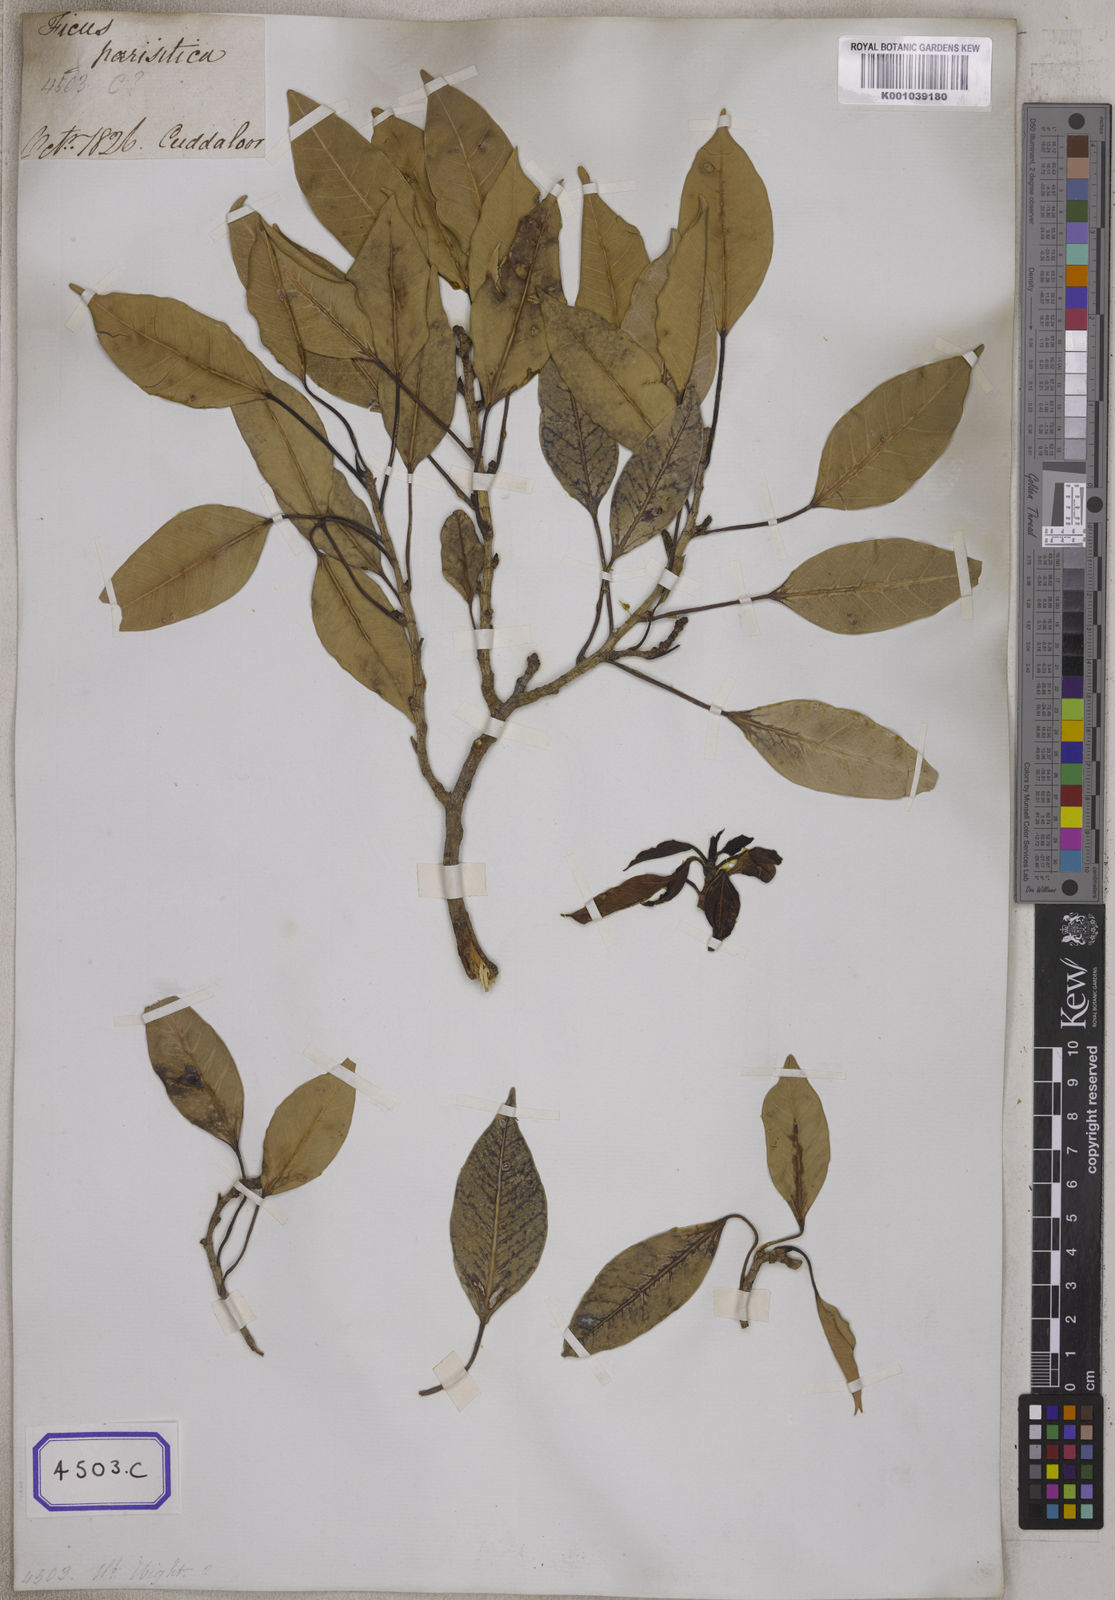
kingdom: Plantae
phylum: Tracheophyta
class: Magnoliopsida
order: Rosales
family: Moraceae
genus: Ficus
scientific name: Ficus
